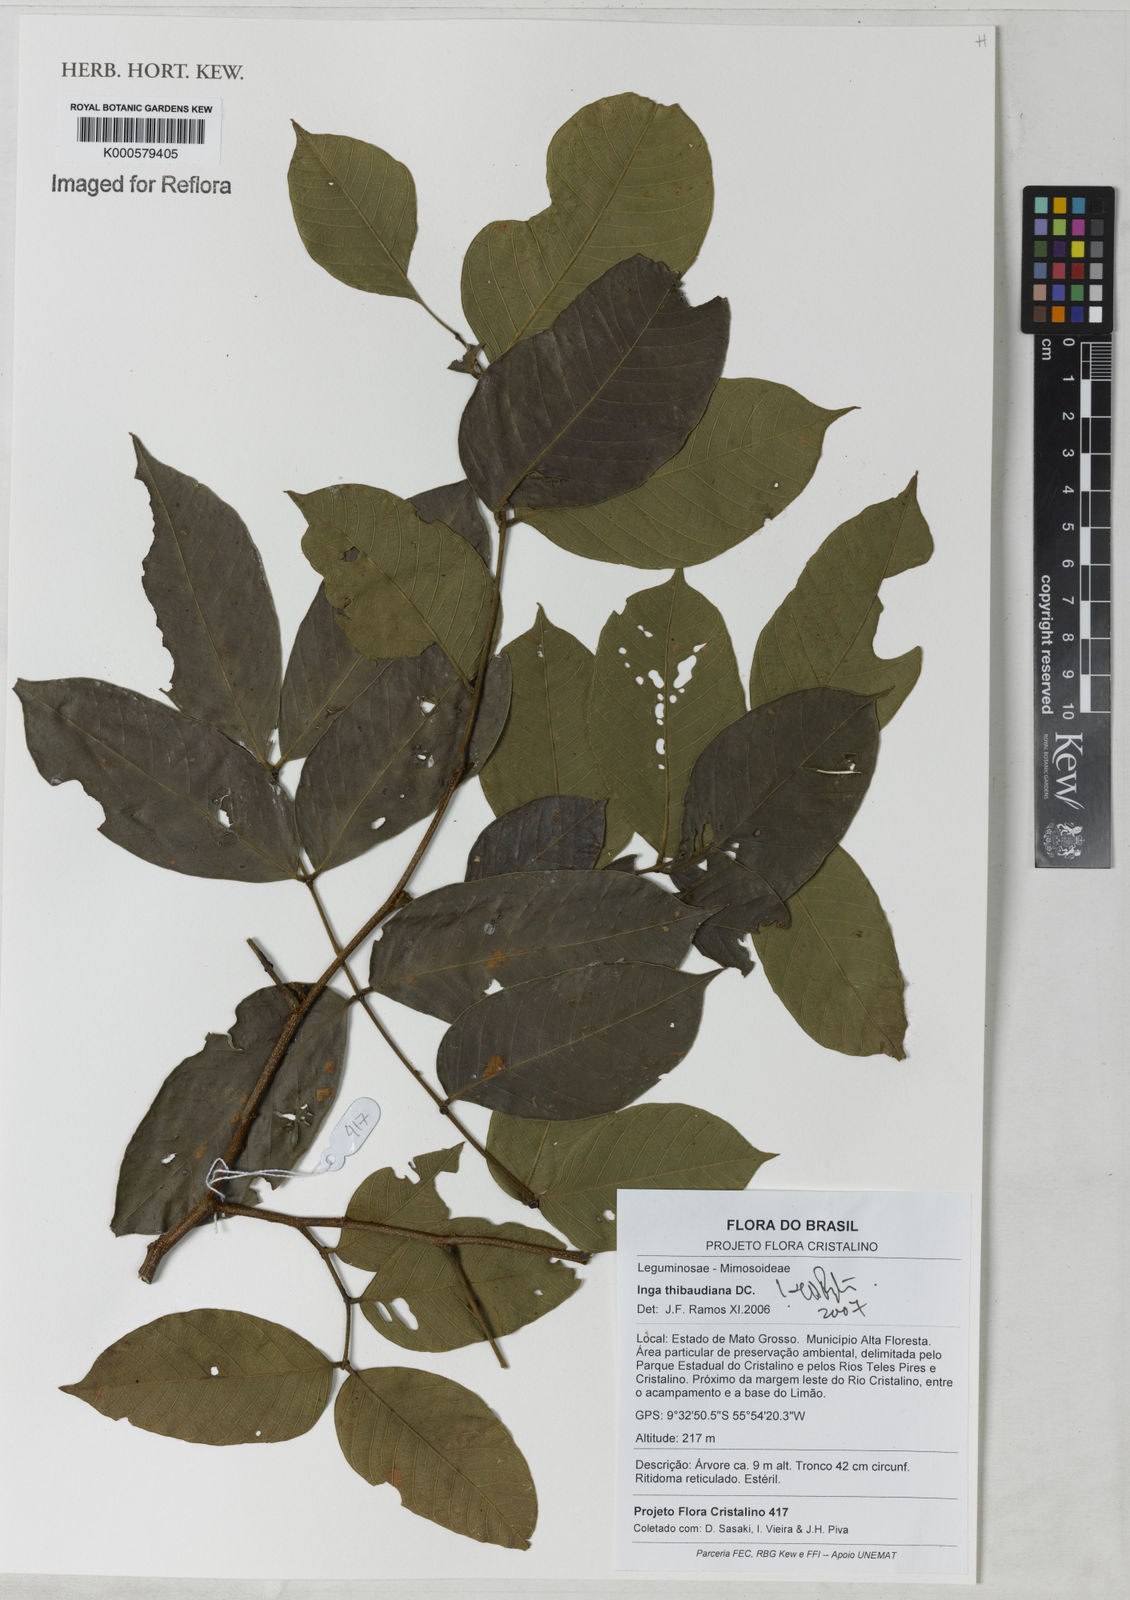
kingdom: Plantae
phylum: Tracheophyta
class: Magnoliopsida
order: Fabales
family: Fabaceae
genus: Inga
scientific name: Inga thibaudiana
